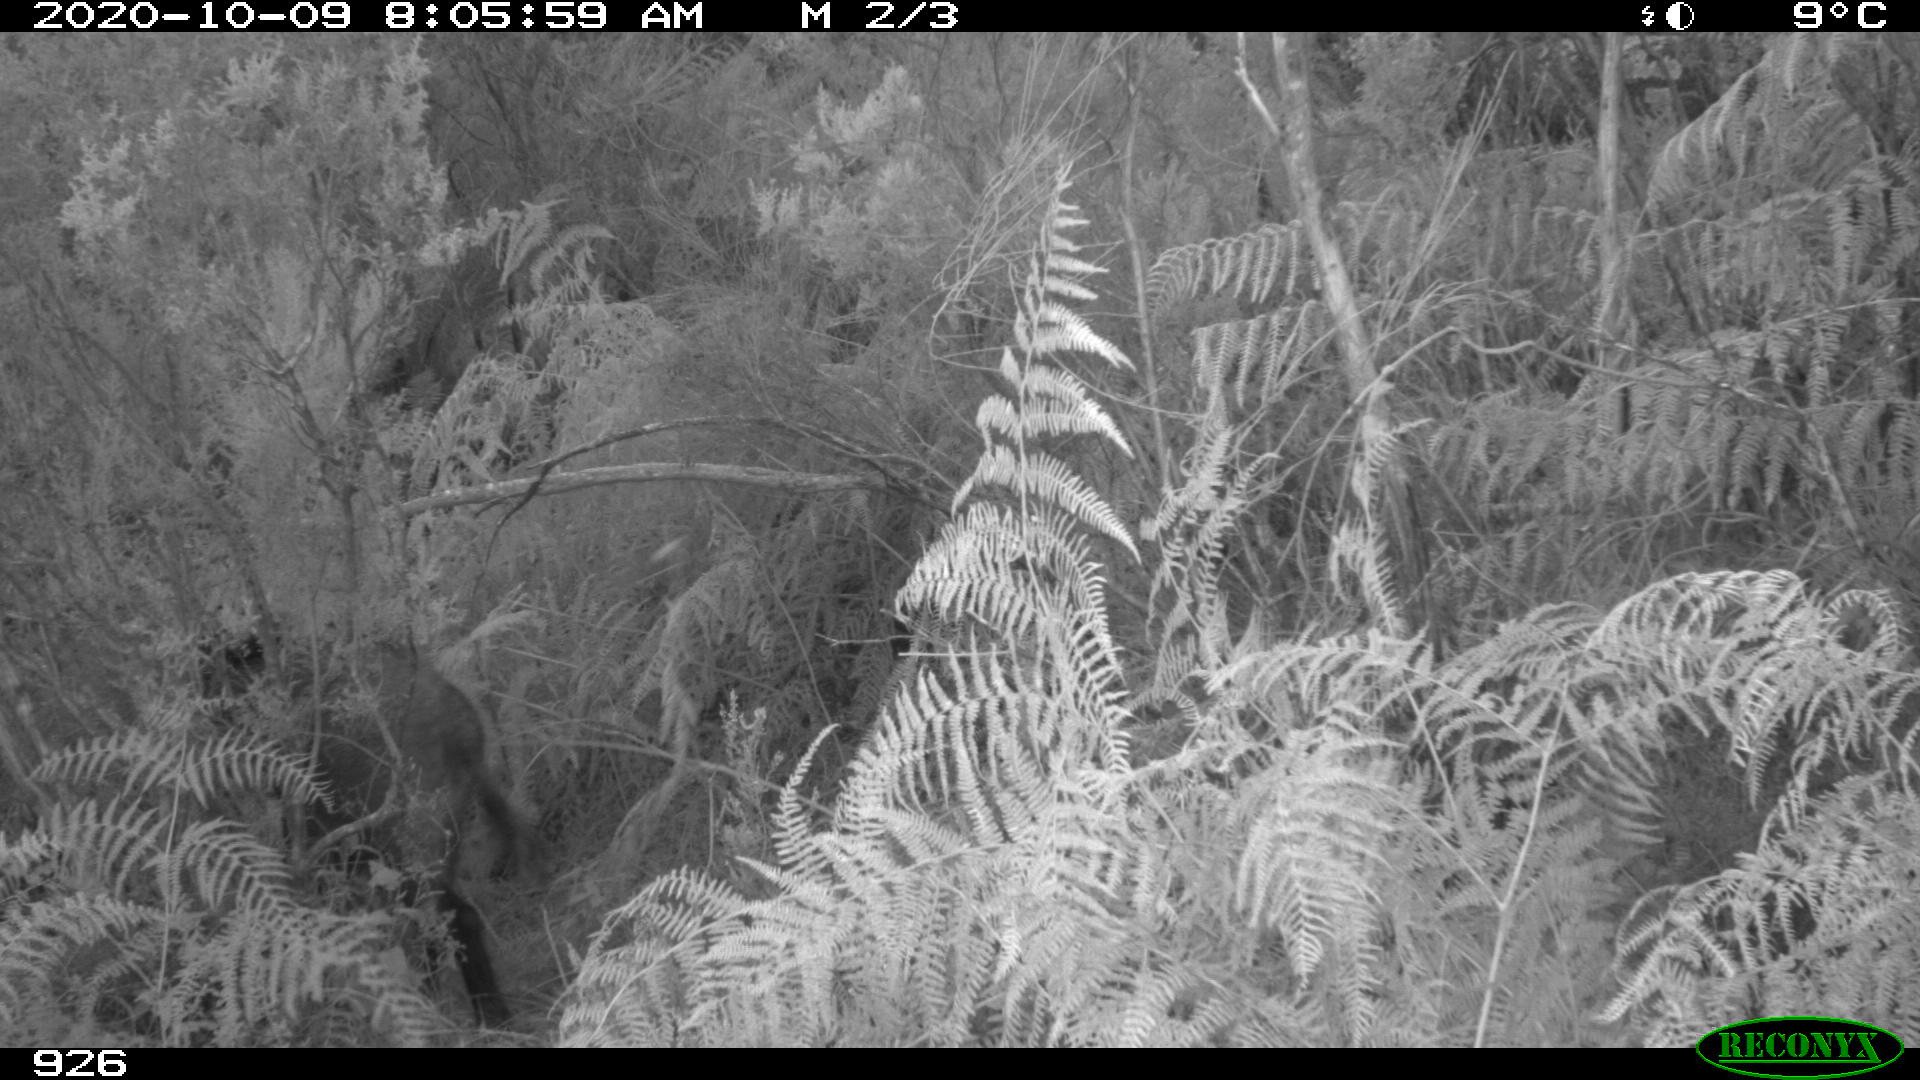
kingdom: Animalia
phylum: Chordata
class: Mammalia
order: Artiodactyla
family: Suidae
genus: Sus
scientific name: Sus scrofa
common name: Wild boar
